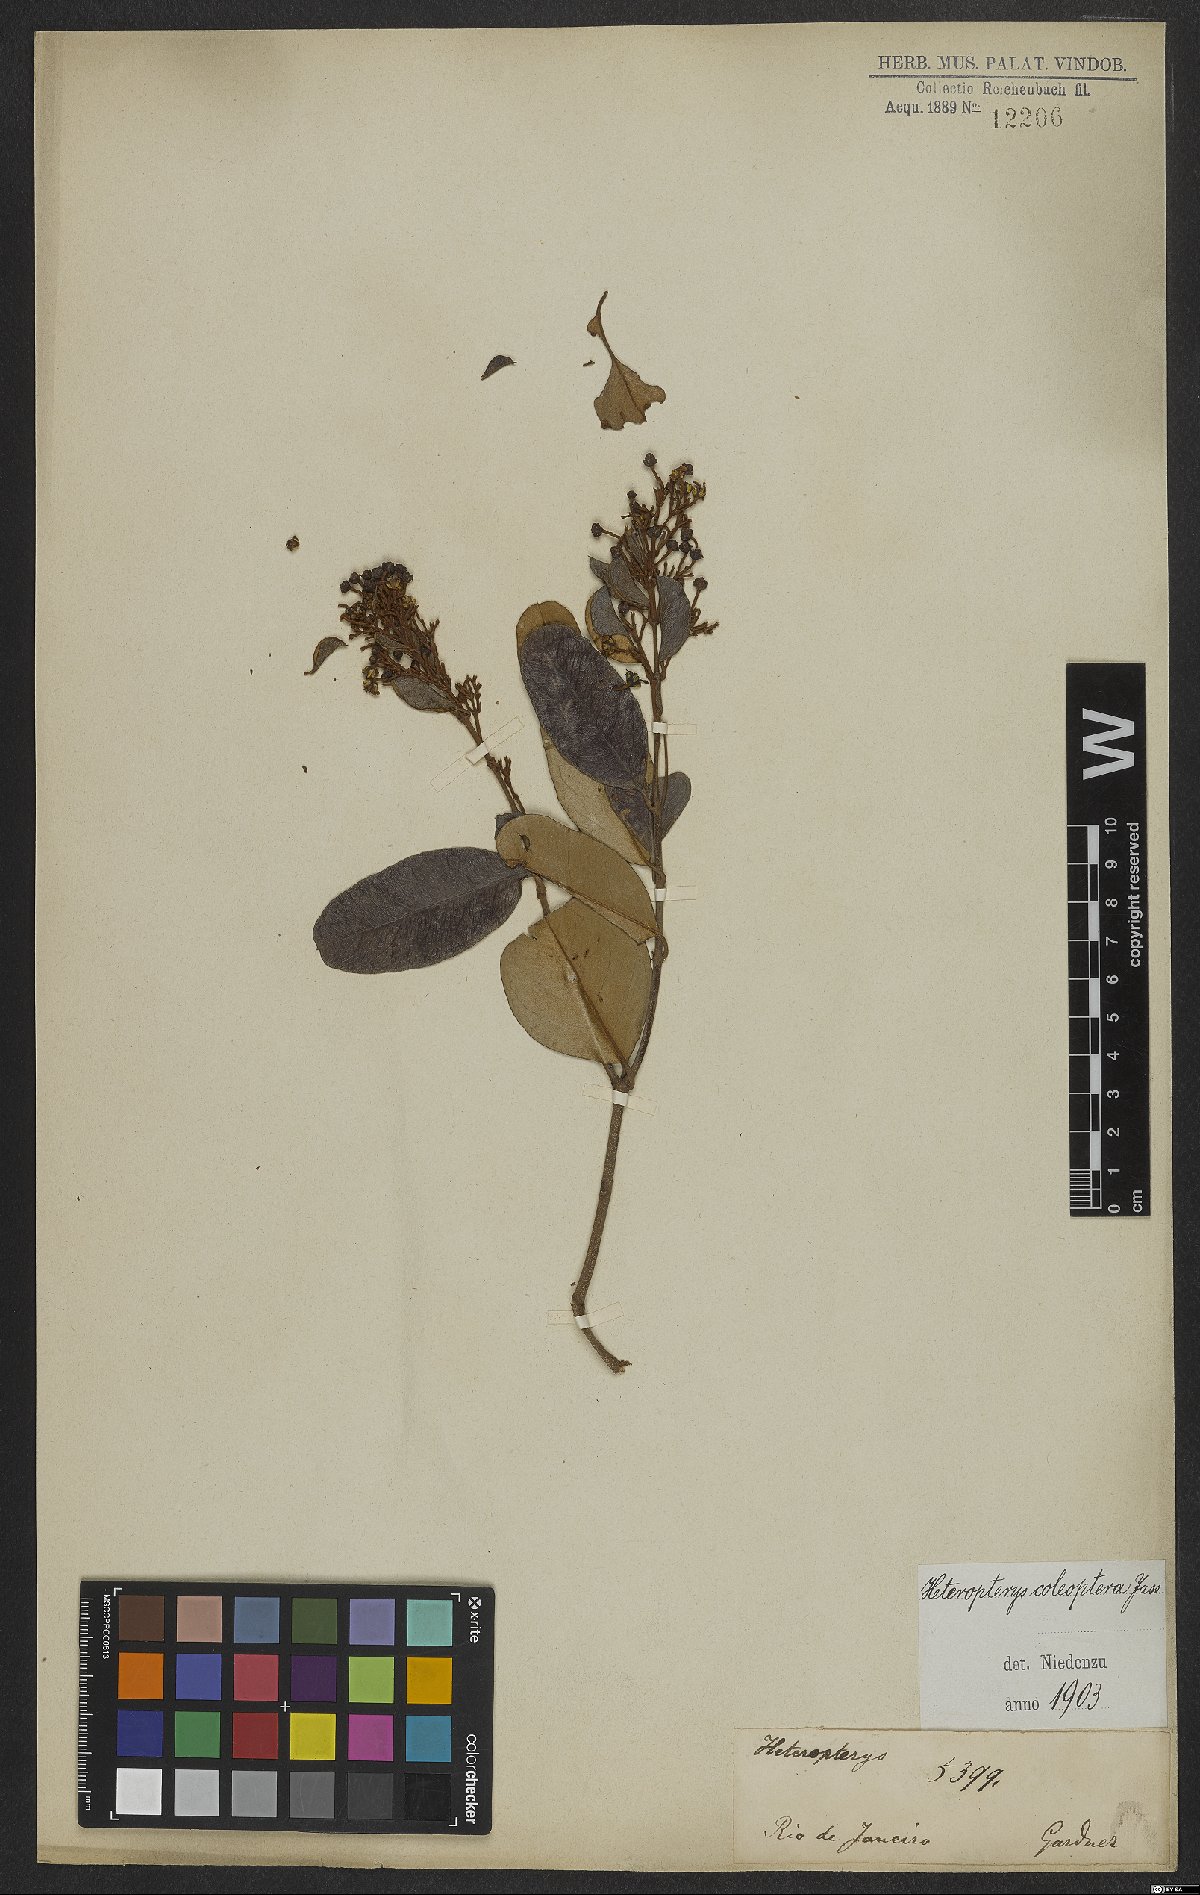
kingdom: Plantae
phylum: Tracheophyta
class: Magnoliopsida
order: Malpighiales
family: Malpighiaceae
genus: Heteropterys
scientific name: Heteropterys coleoptera
